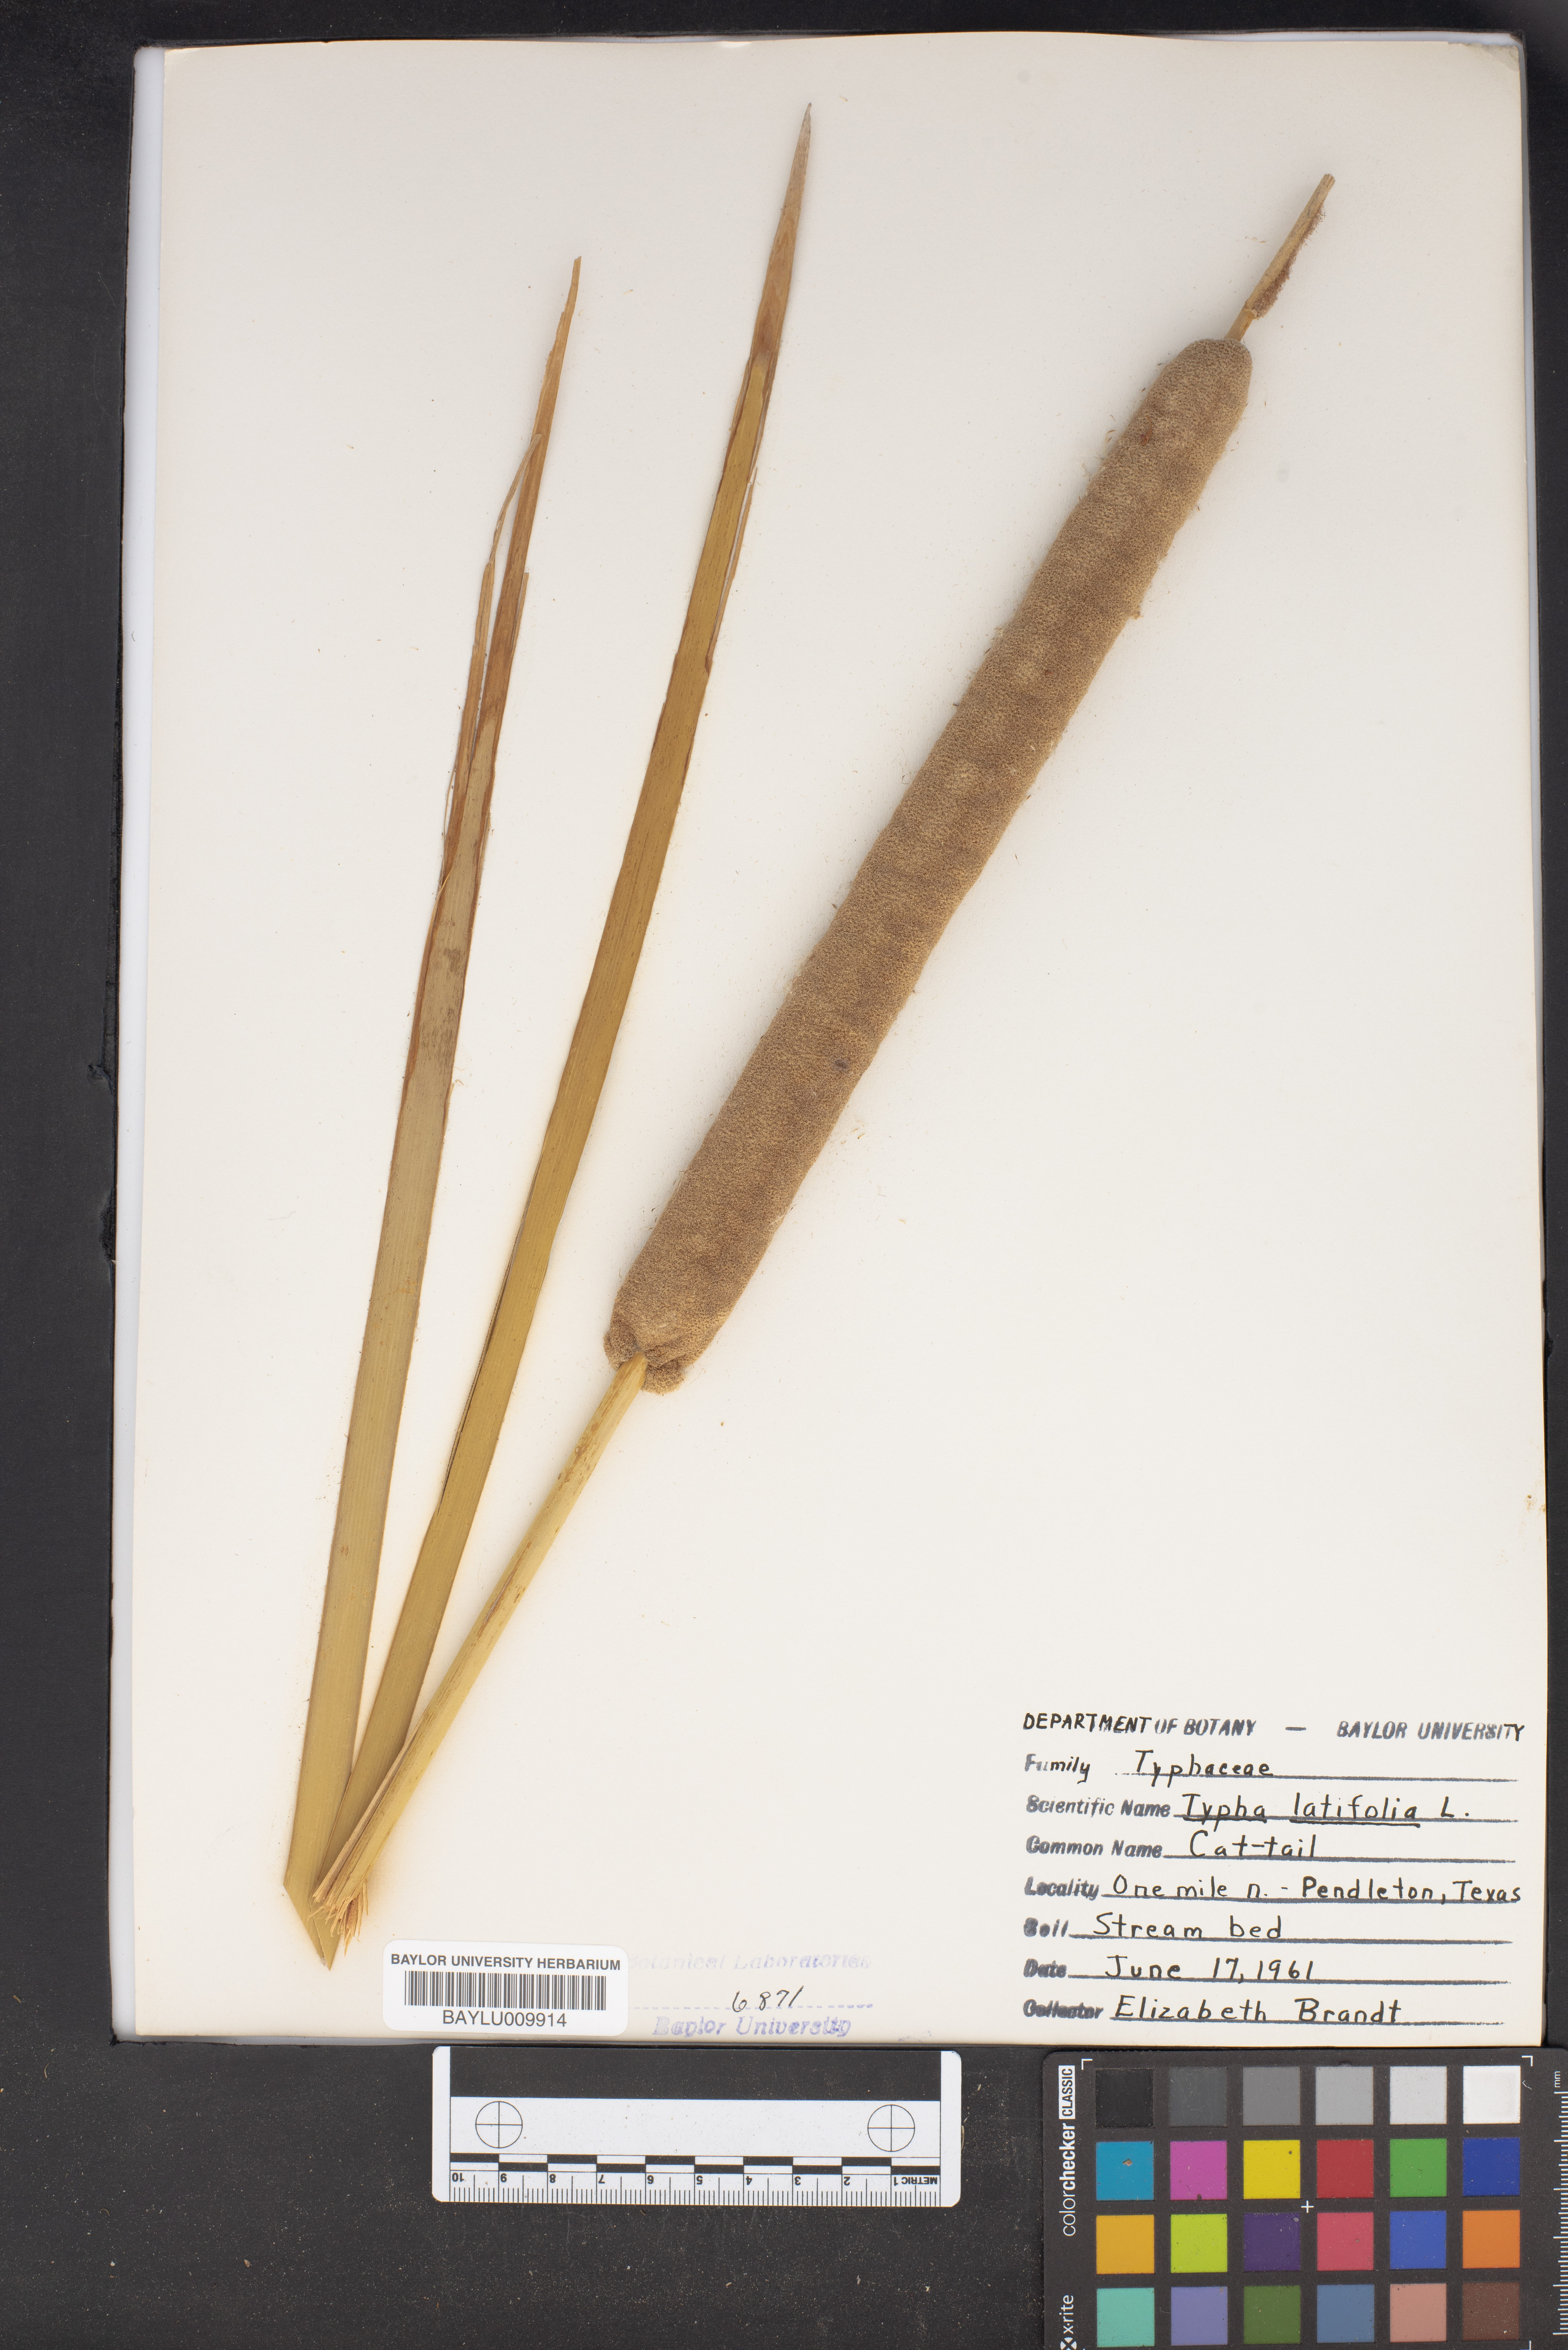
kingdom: Plantae
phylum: Tracheophyta
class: Liliopsida
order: Poales
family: Typhaceae
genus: Typha
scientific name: Typha latifolia
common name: Broadleaf cattail
